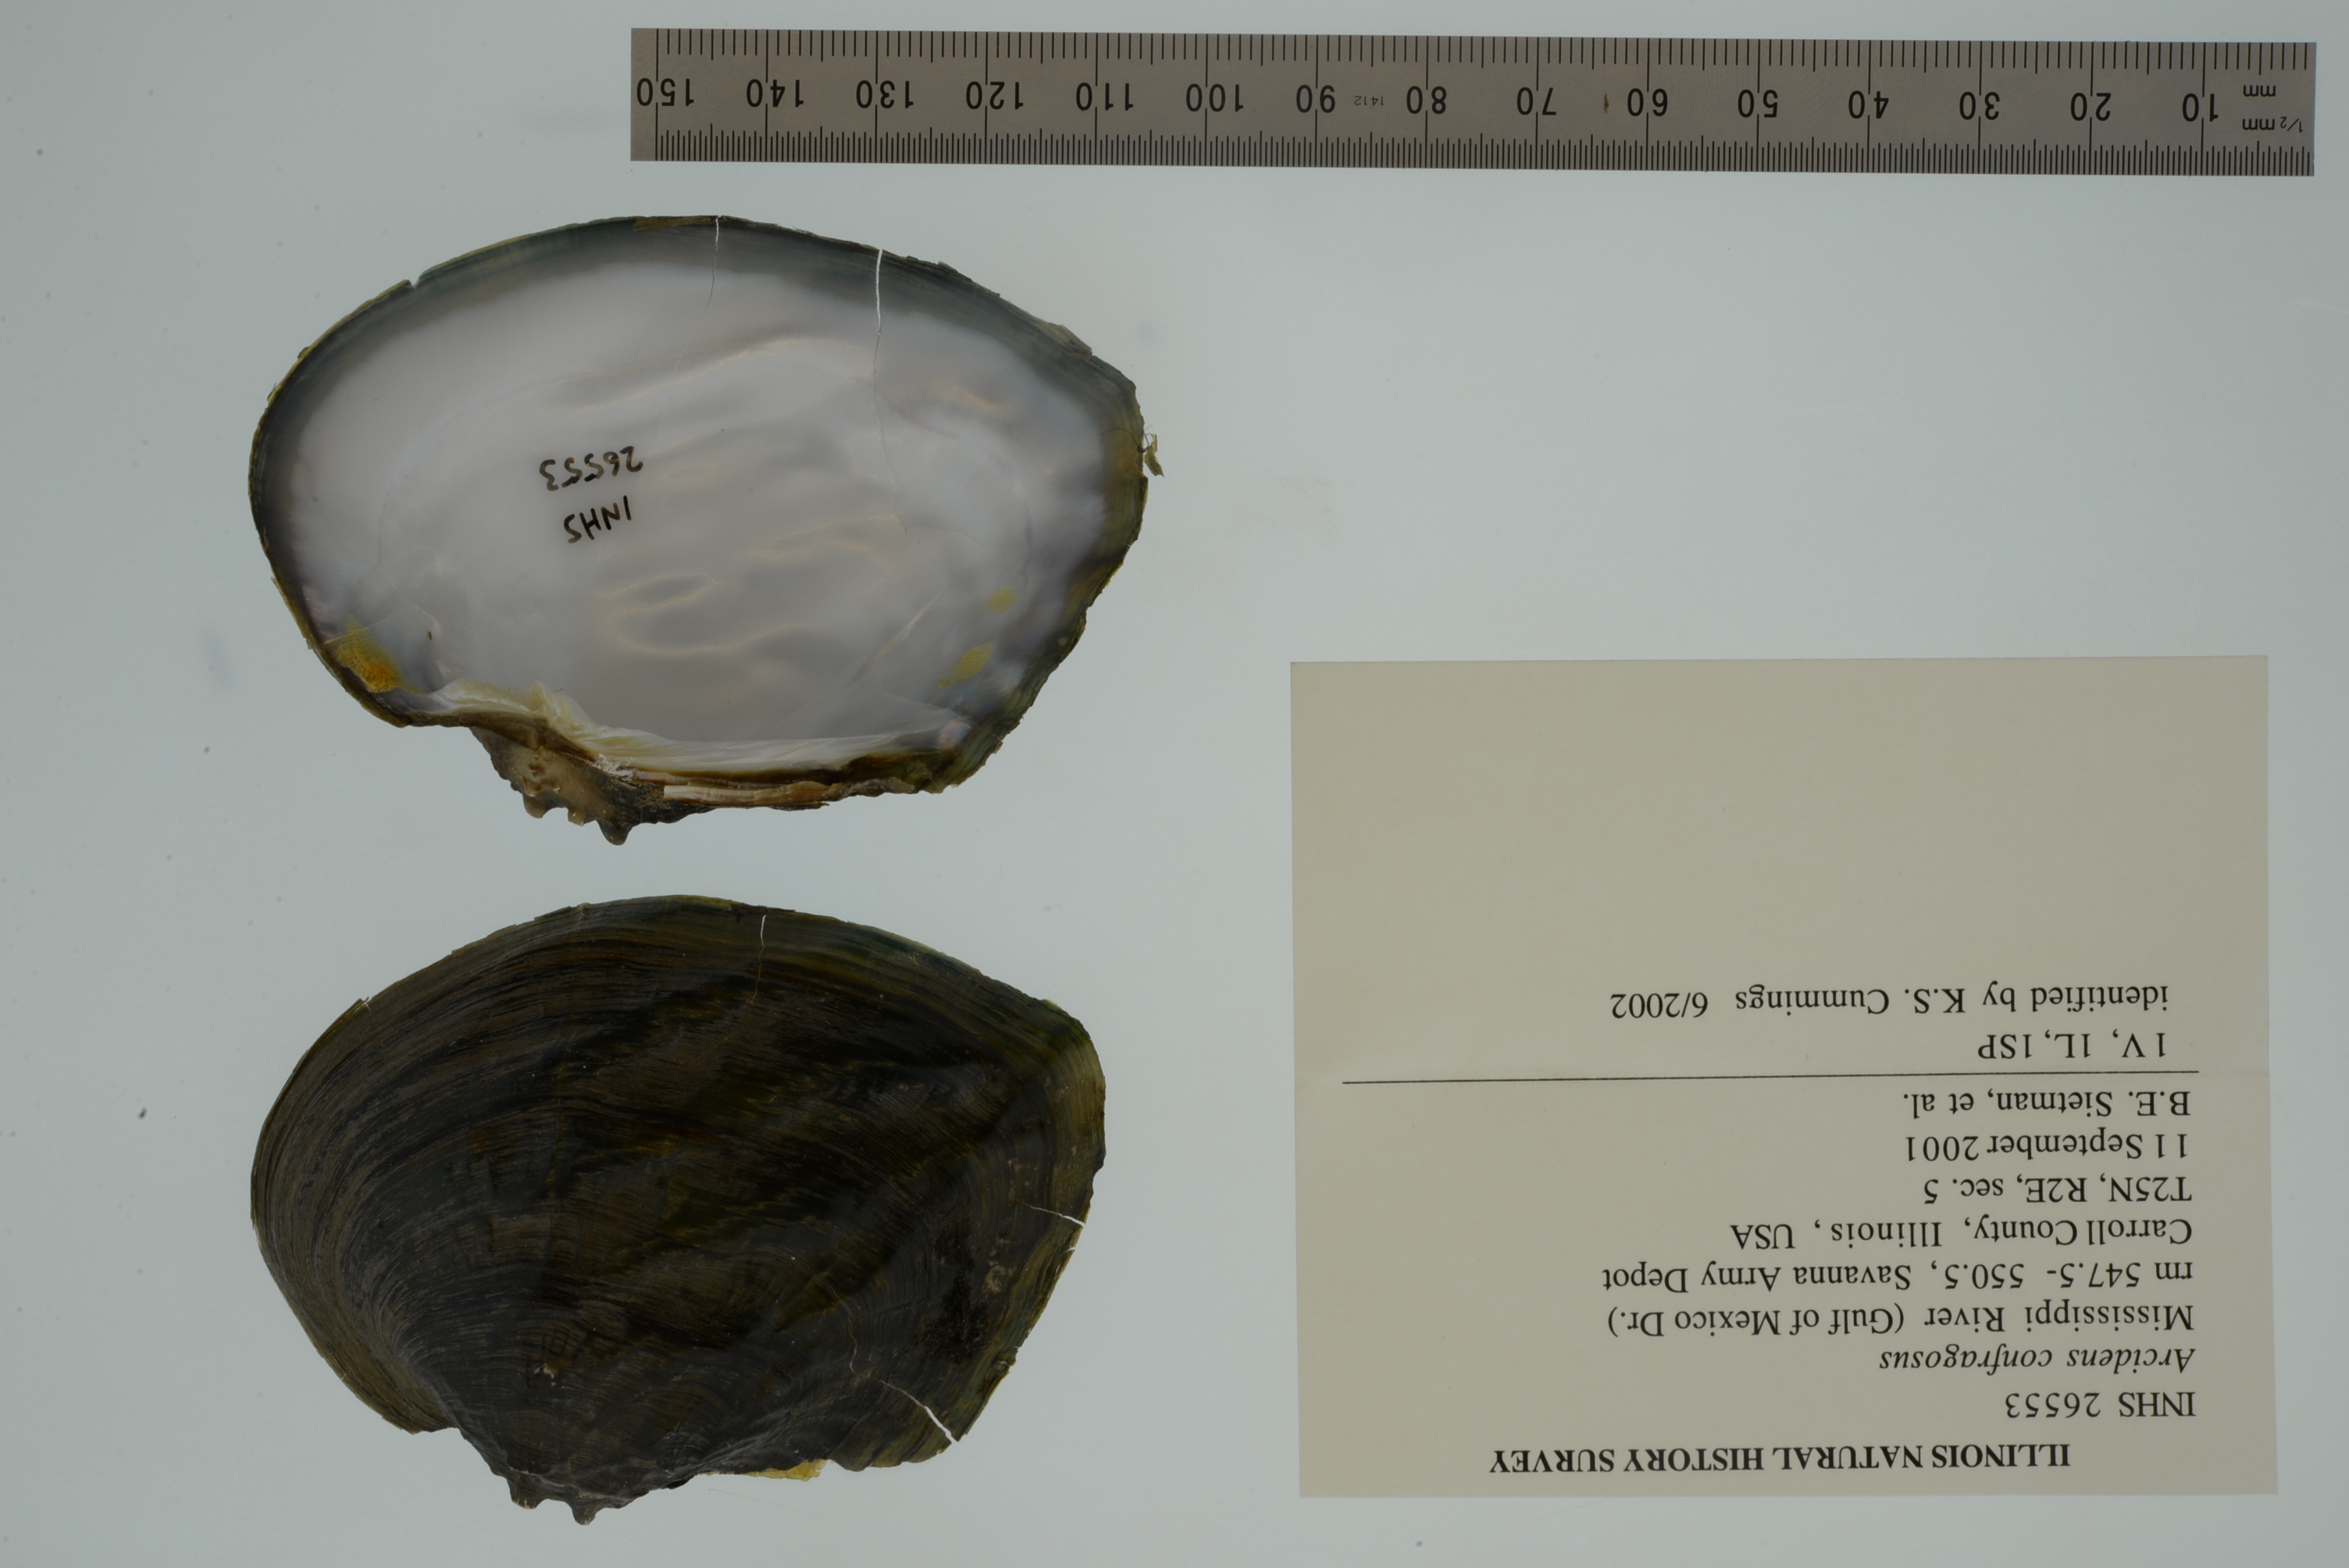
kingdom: Animalia
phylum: Mollusca
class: Bivalvia
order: Unionida
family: Unionidae
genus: Arcidens
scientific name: Arcidens confragosus
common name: Rock pocketbook
